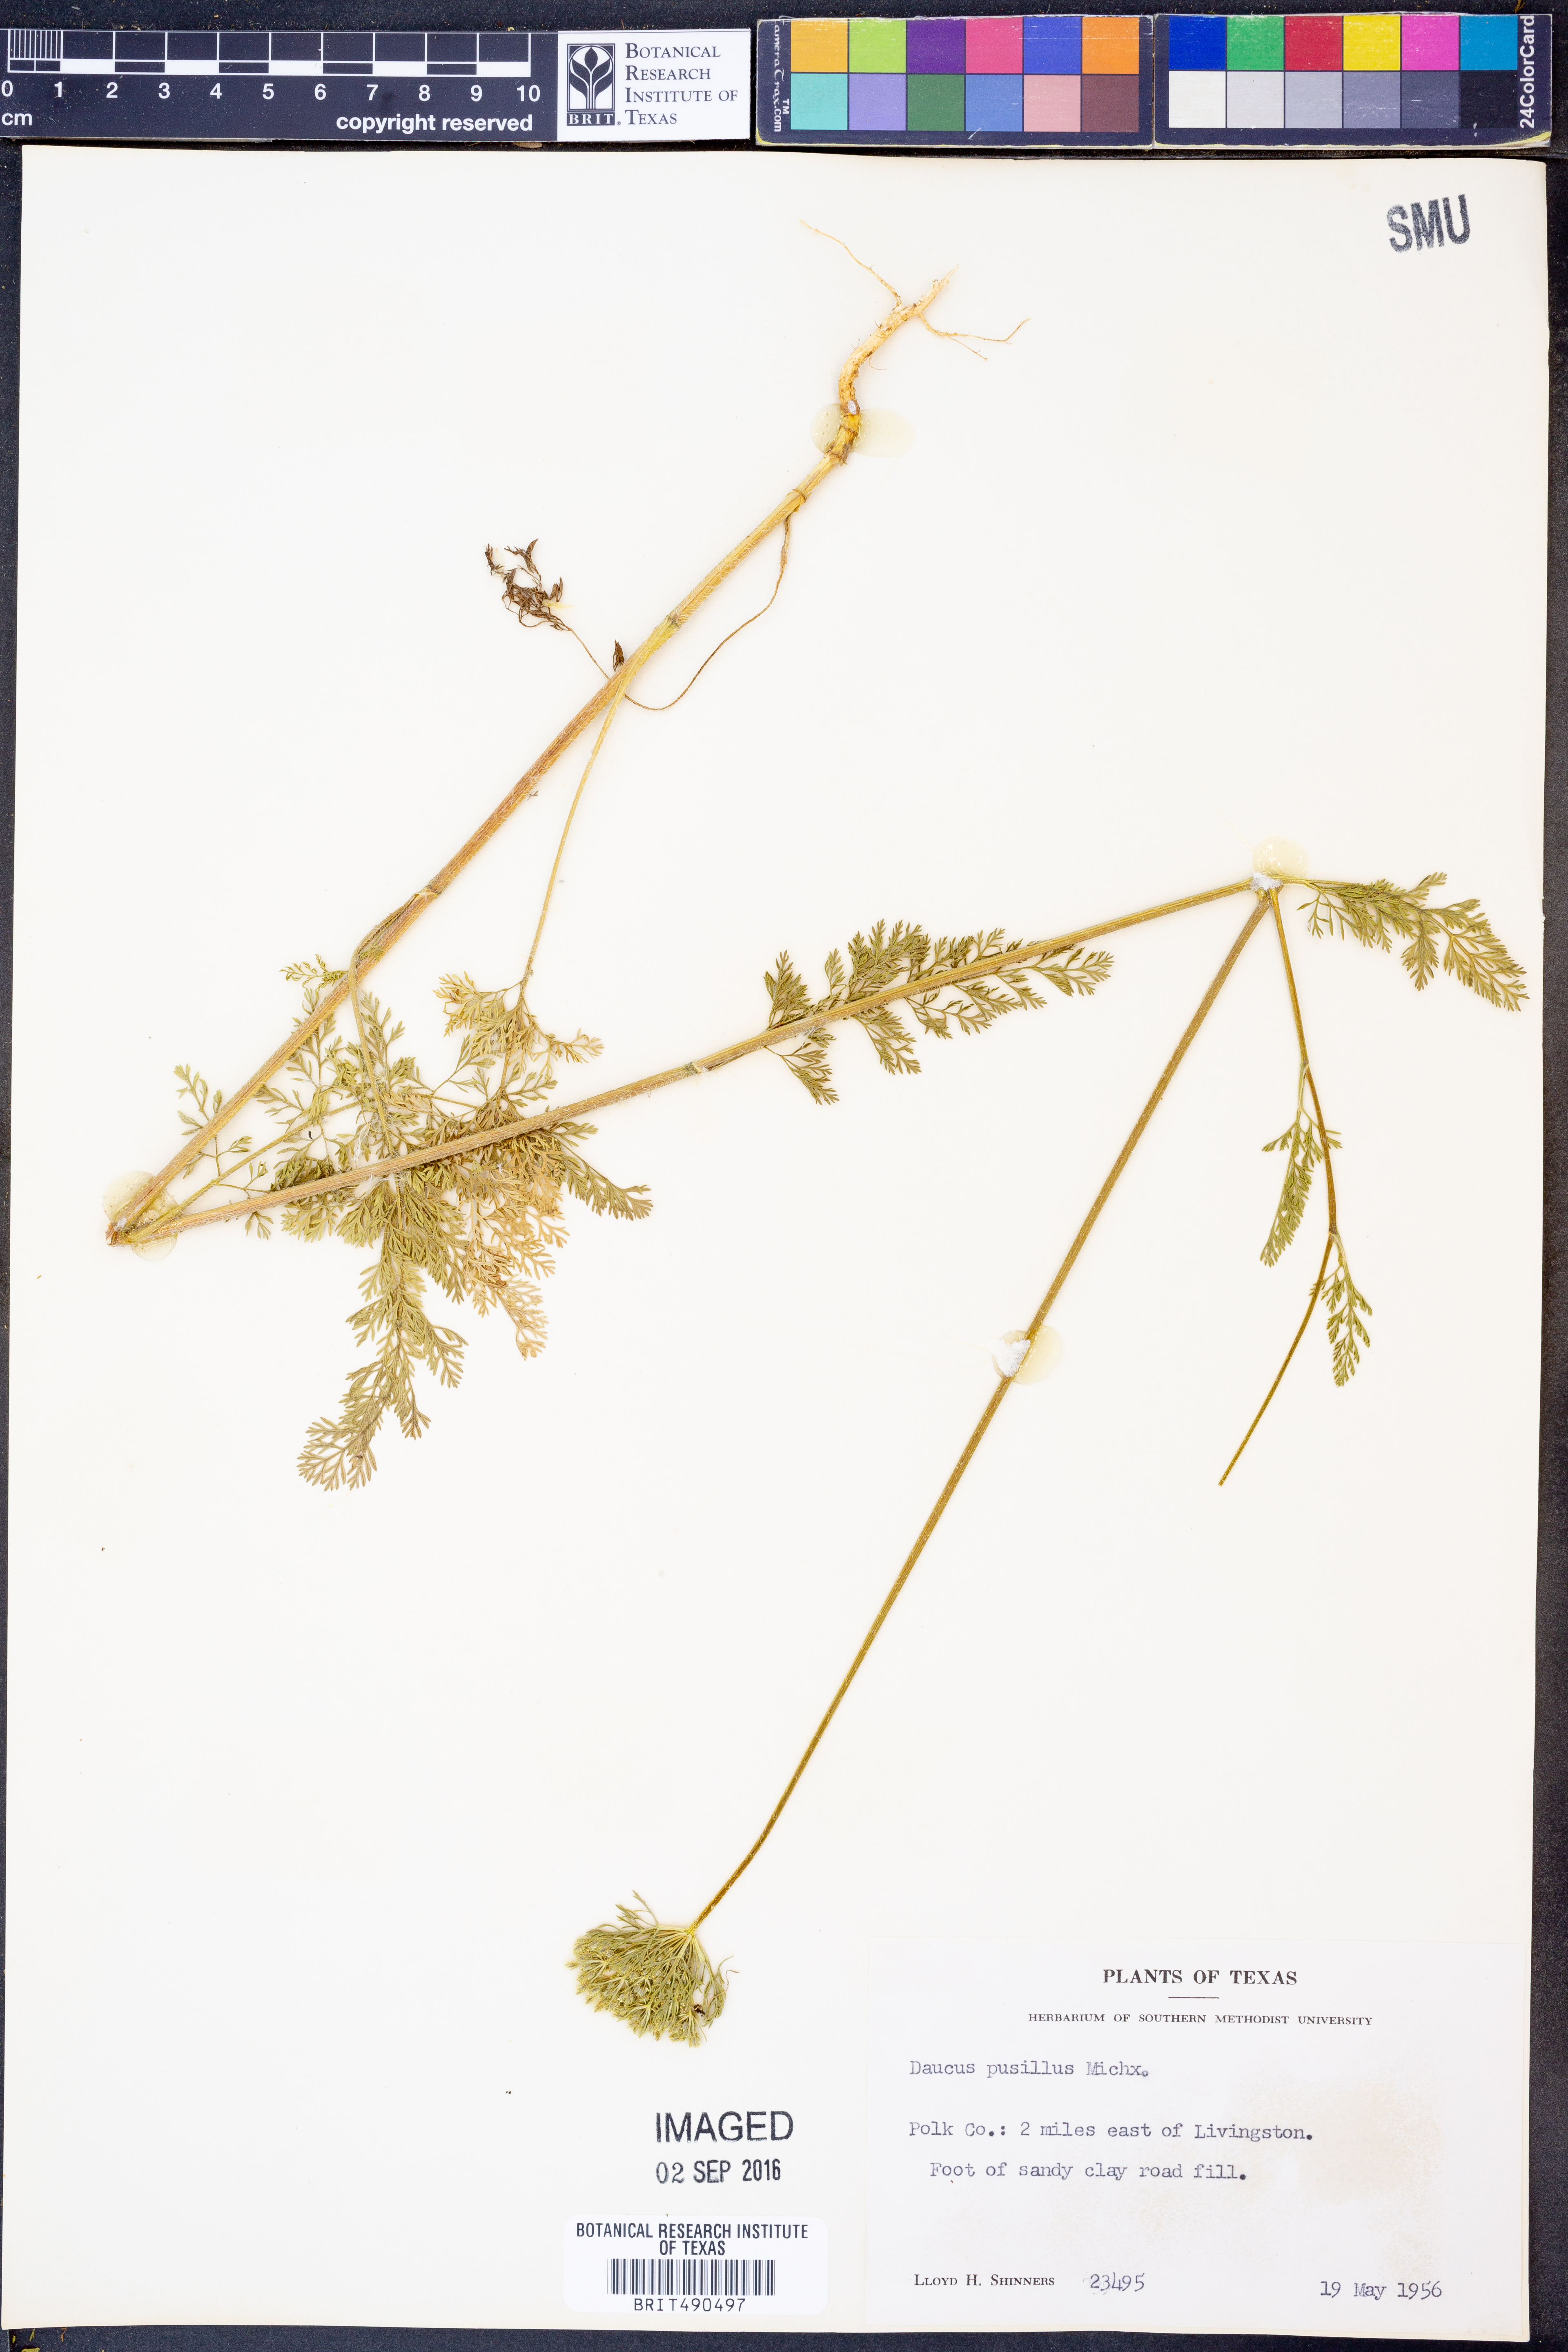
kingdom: Plantae
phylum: Tracheophyta
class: Magnoliopsida
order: Apiales
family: Apiaceae
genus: Daucus
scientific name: Daucus pusillus
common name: Southwest wild carrot
